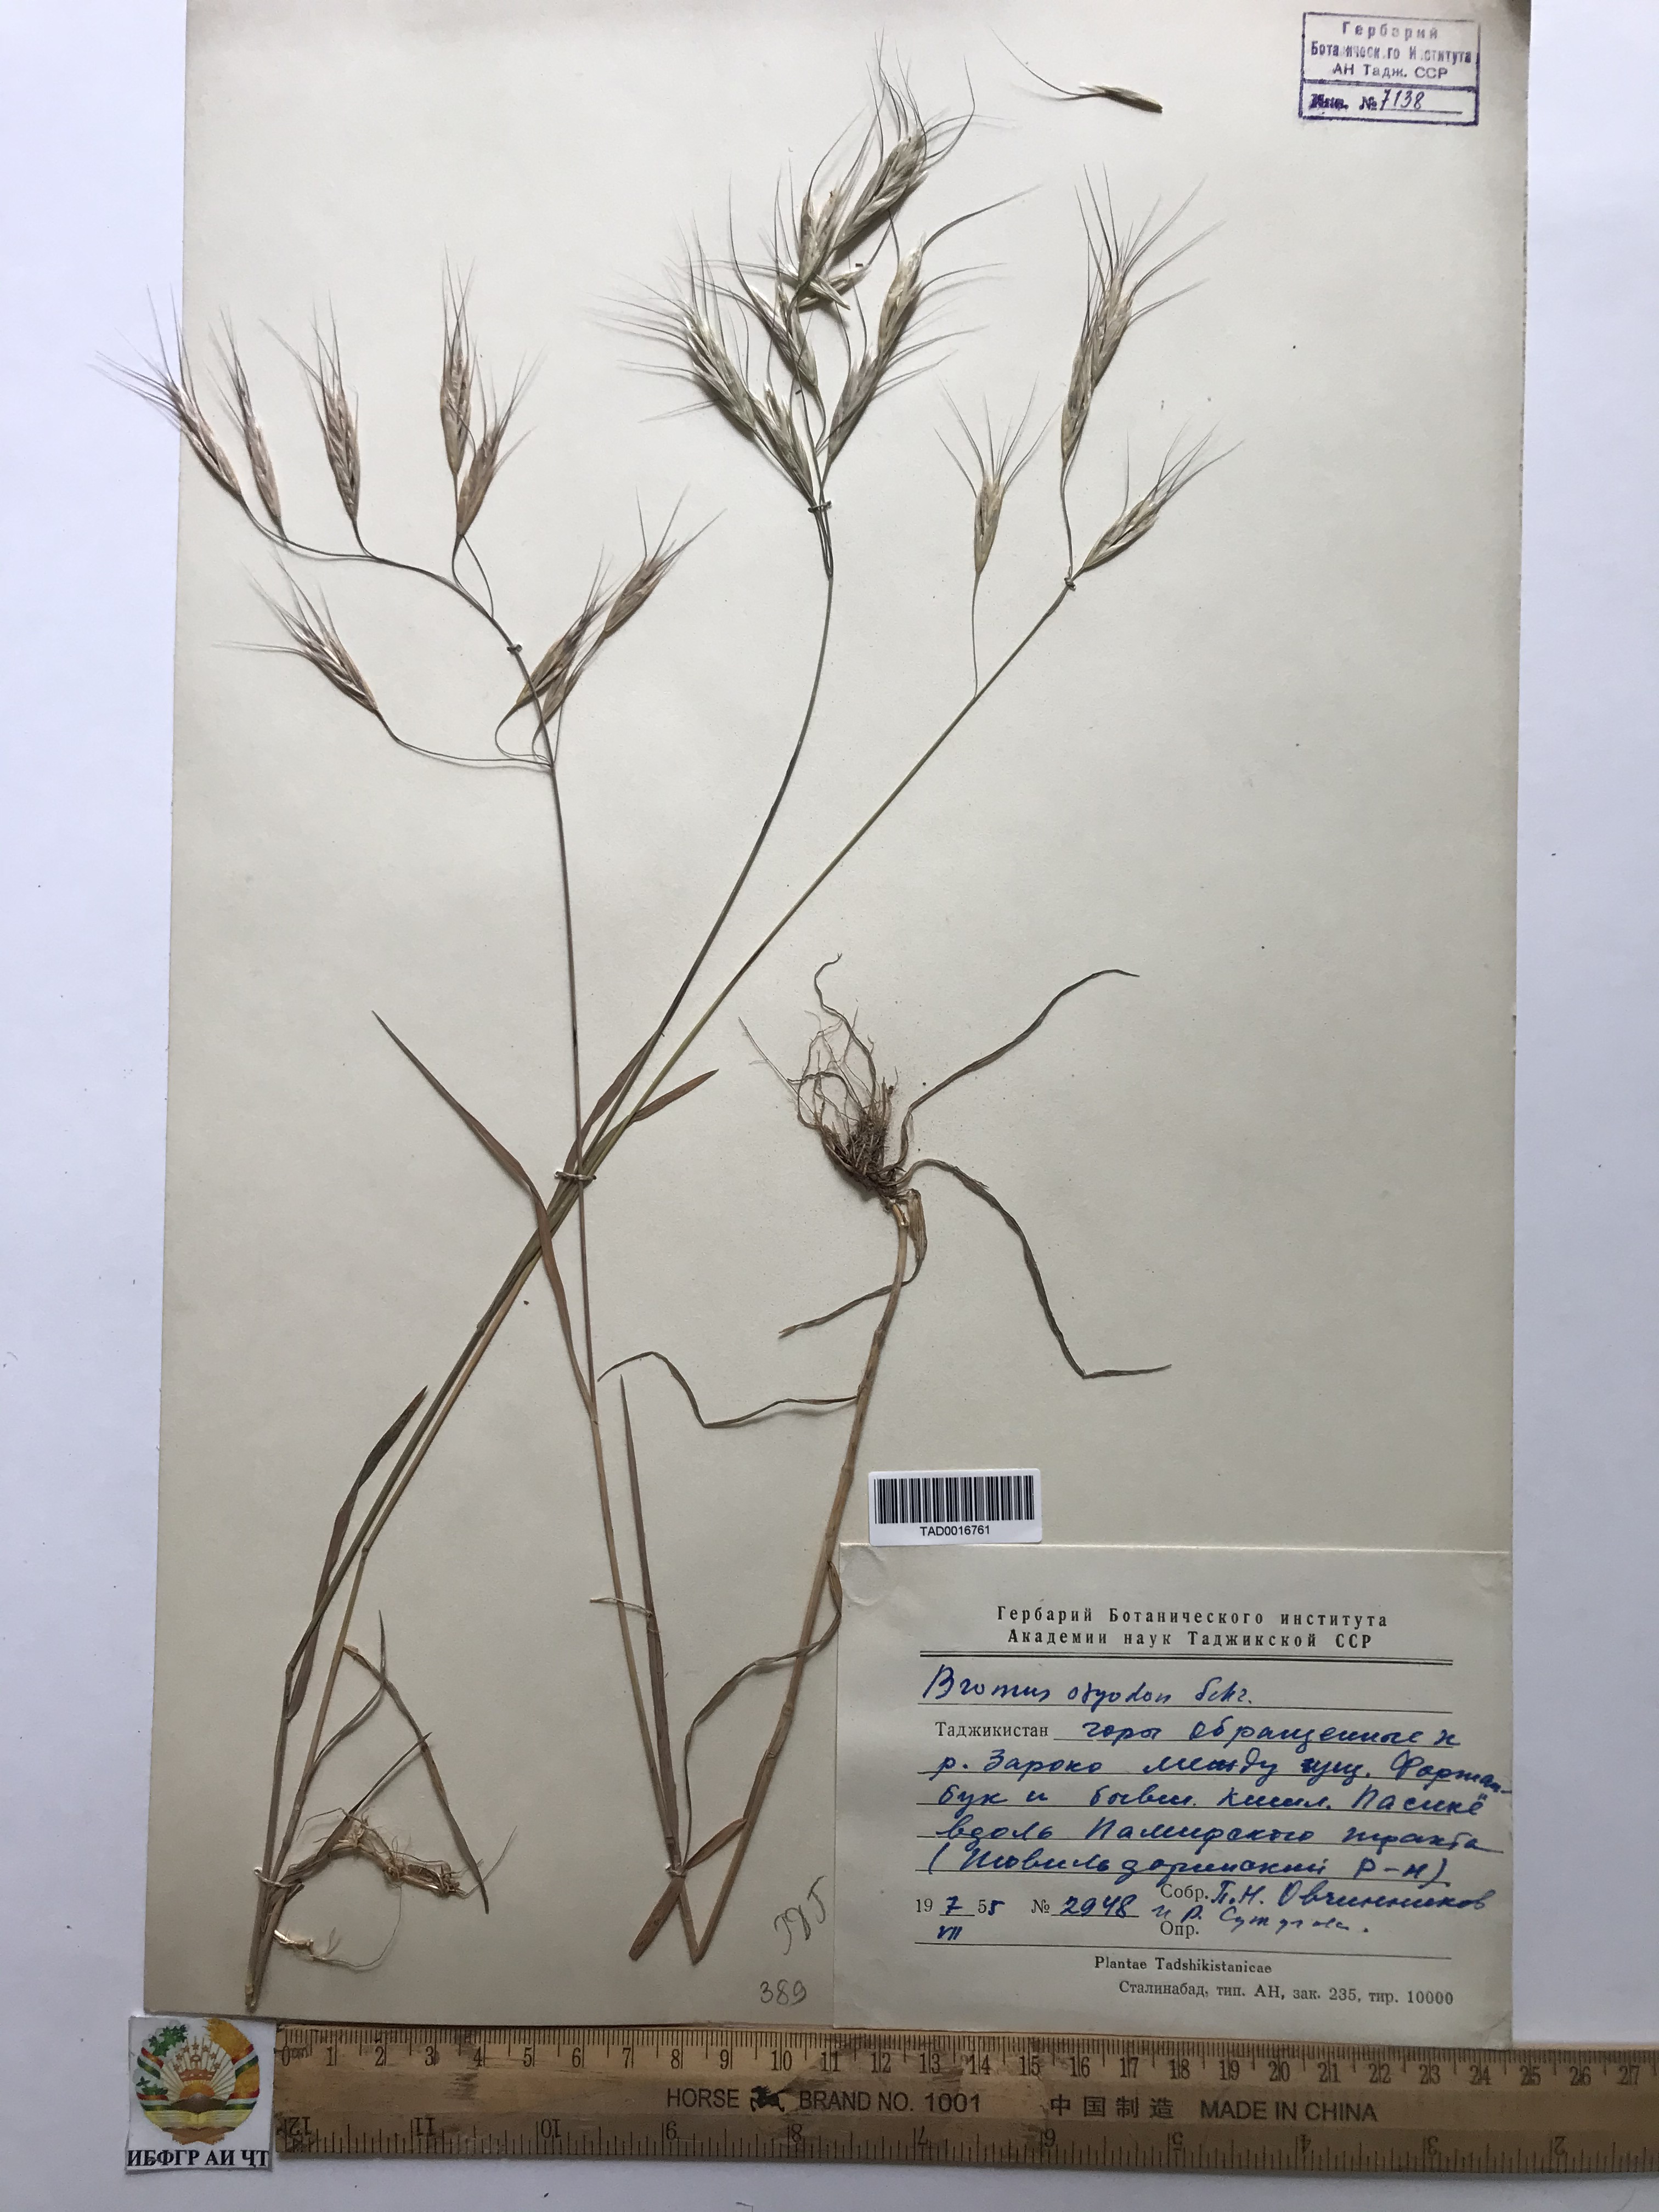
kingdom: Plantae
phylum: Tracheophyta
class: Liliopsida
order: Poales
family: Poaceae
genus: Bromus
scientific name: Bromus oxyodon
